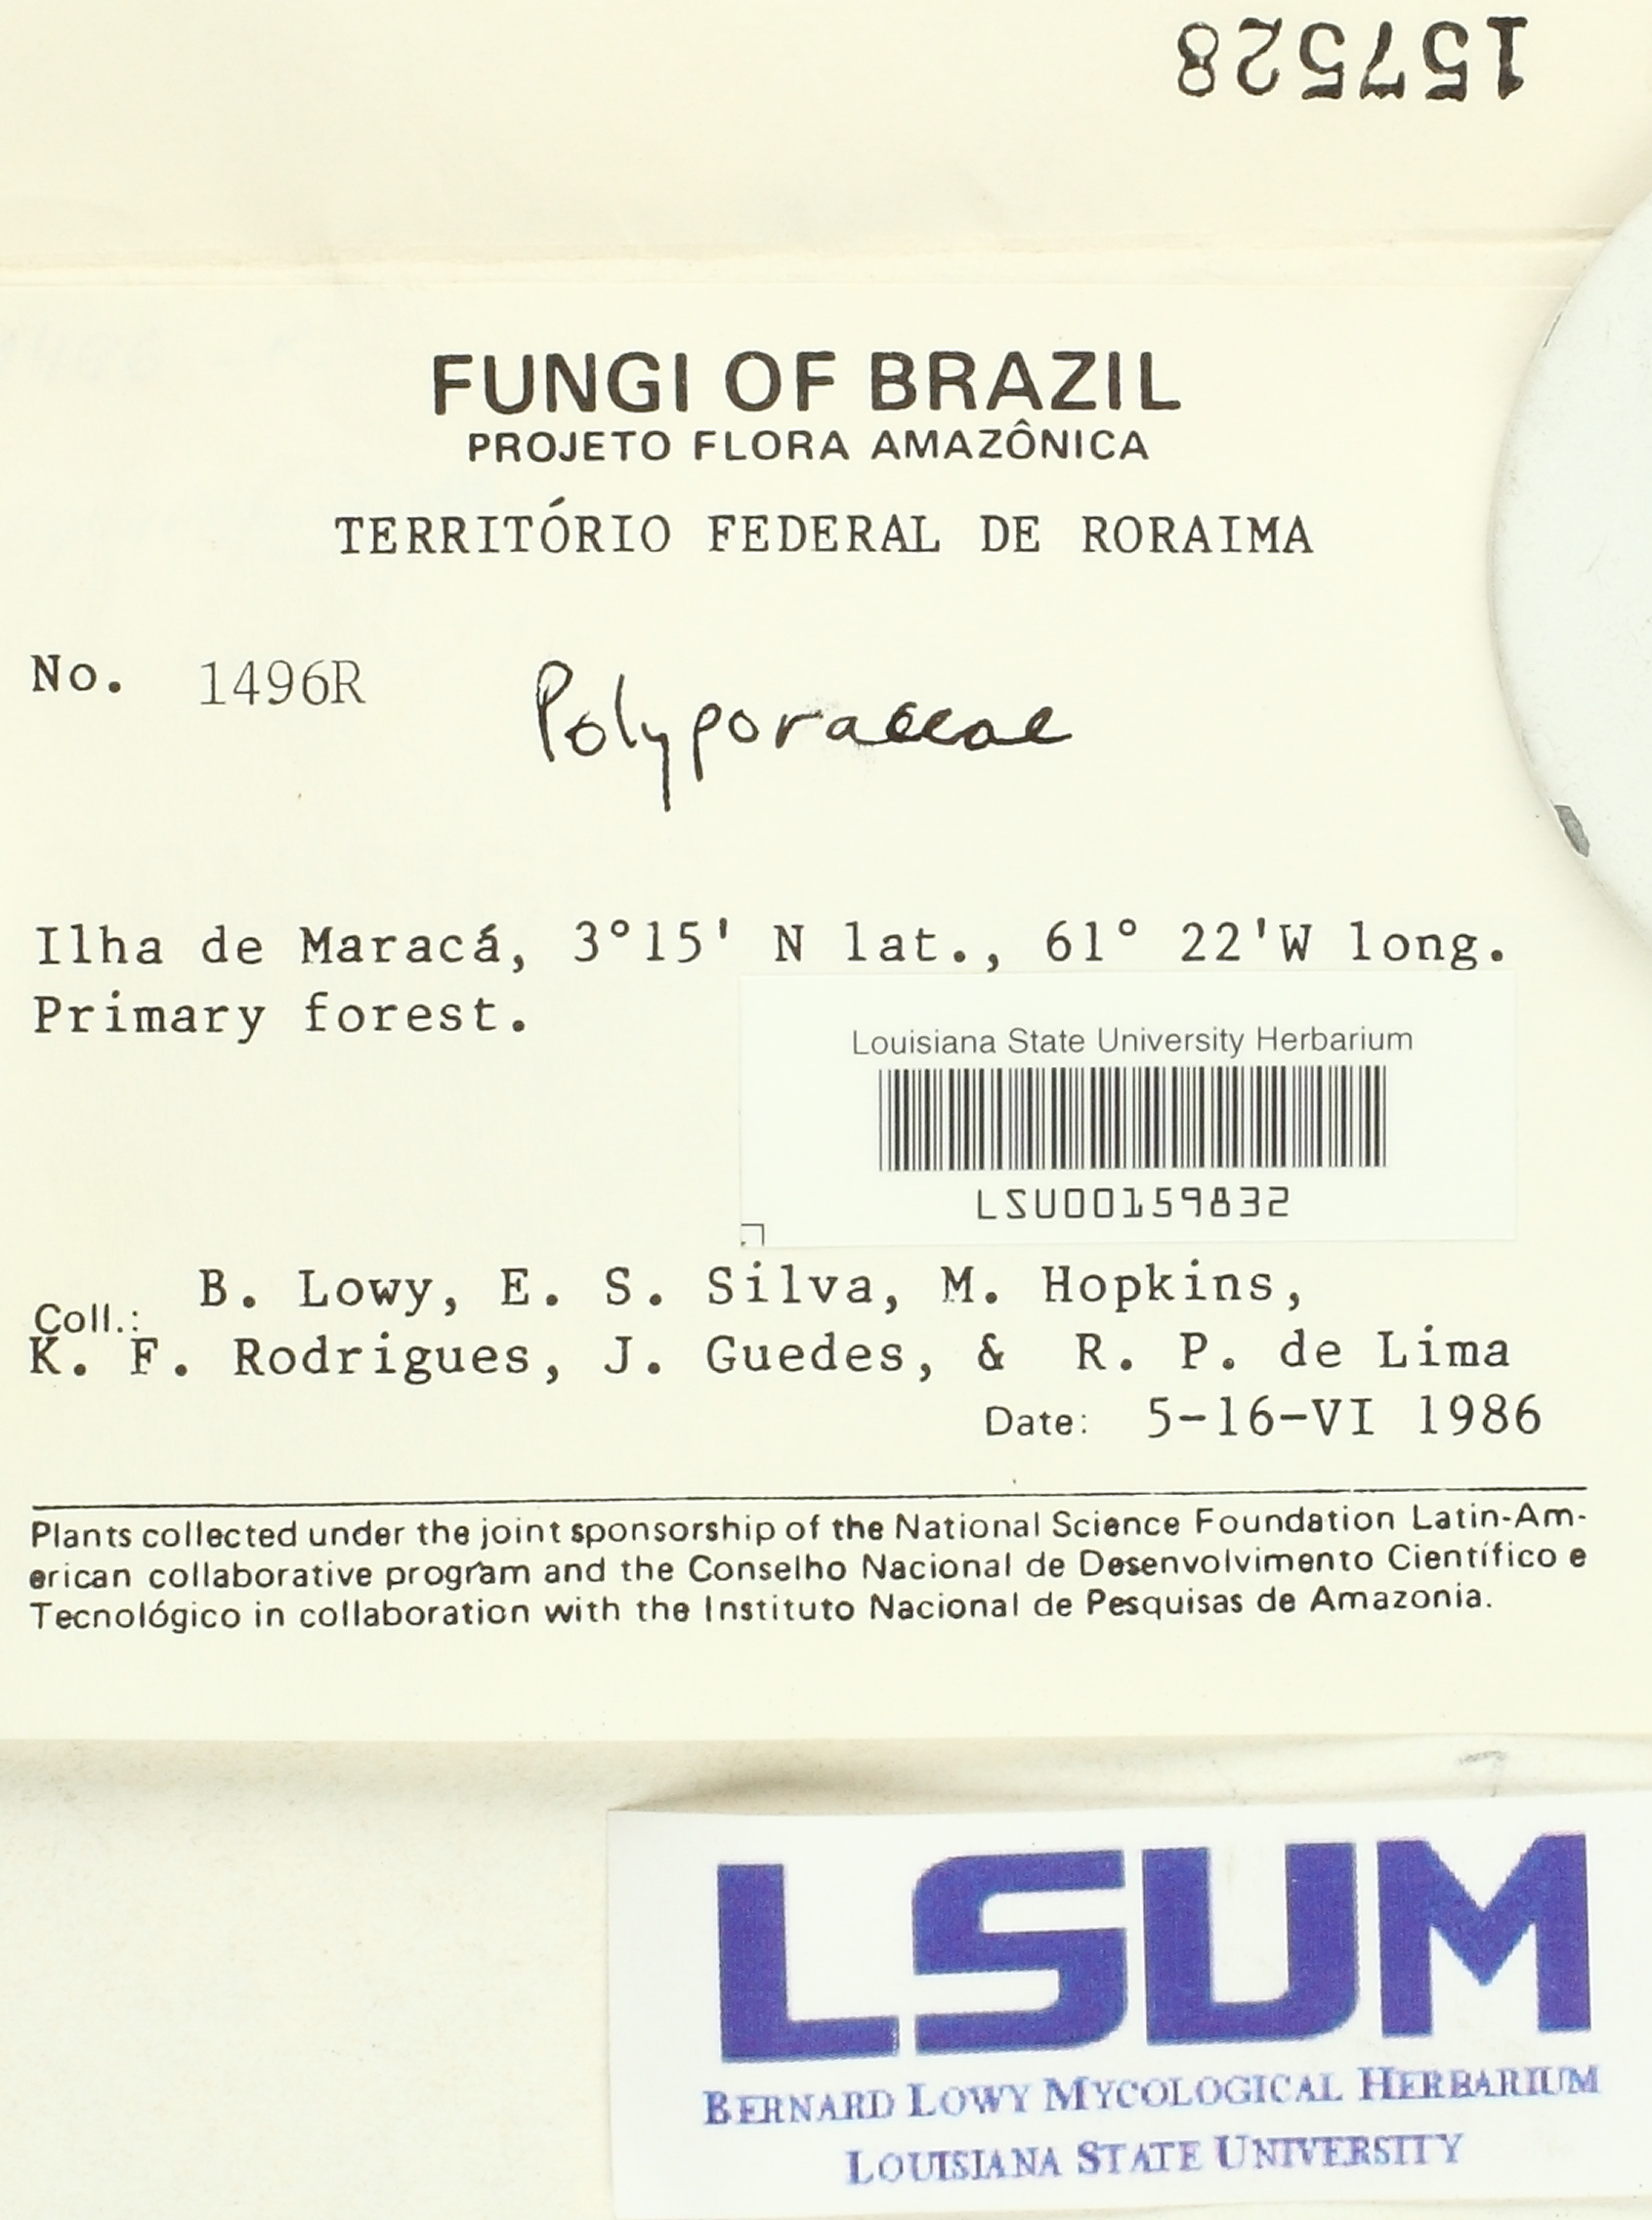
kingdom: Fungi
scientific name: Fungi
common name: Fungi
